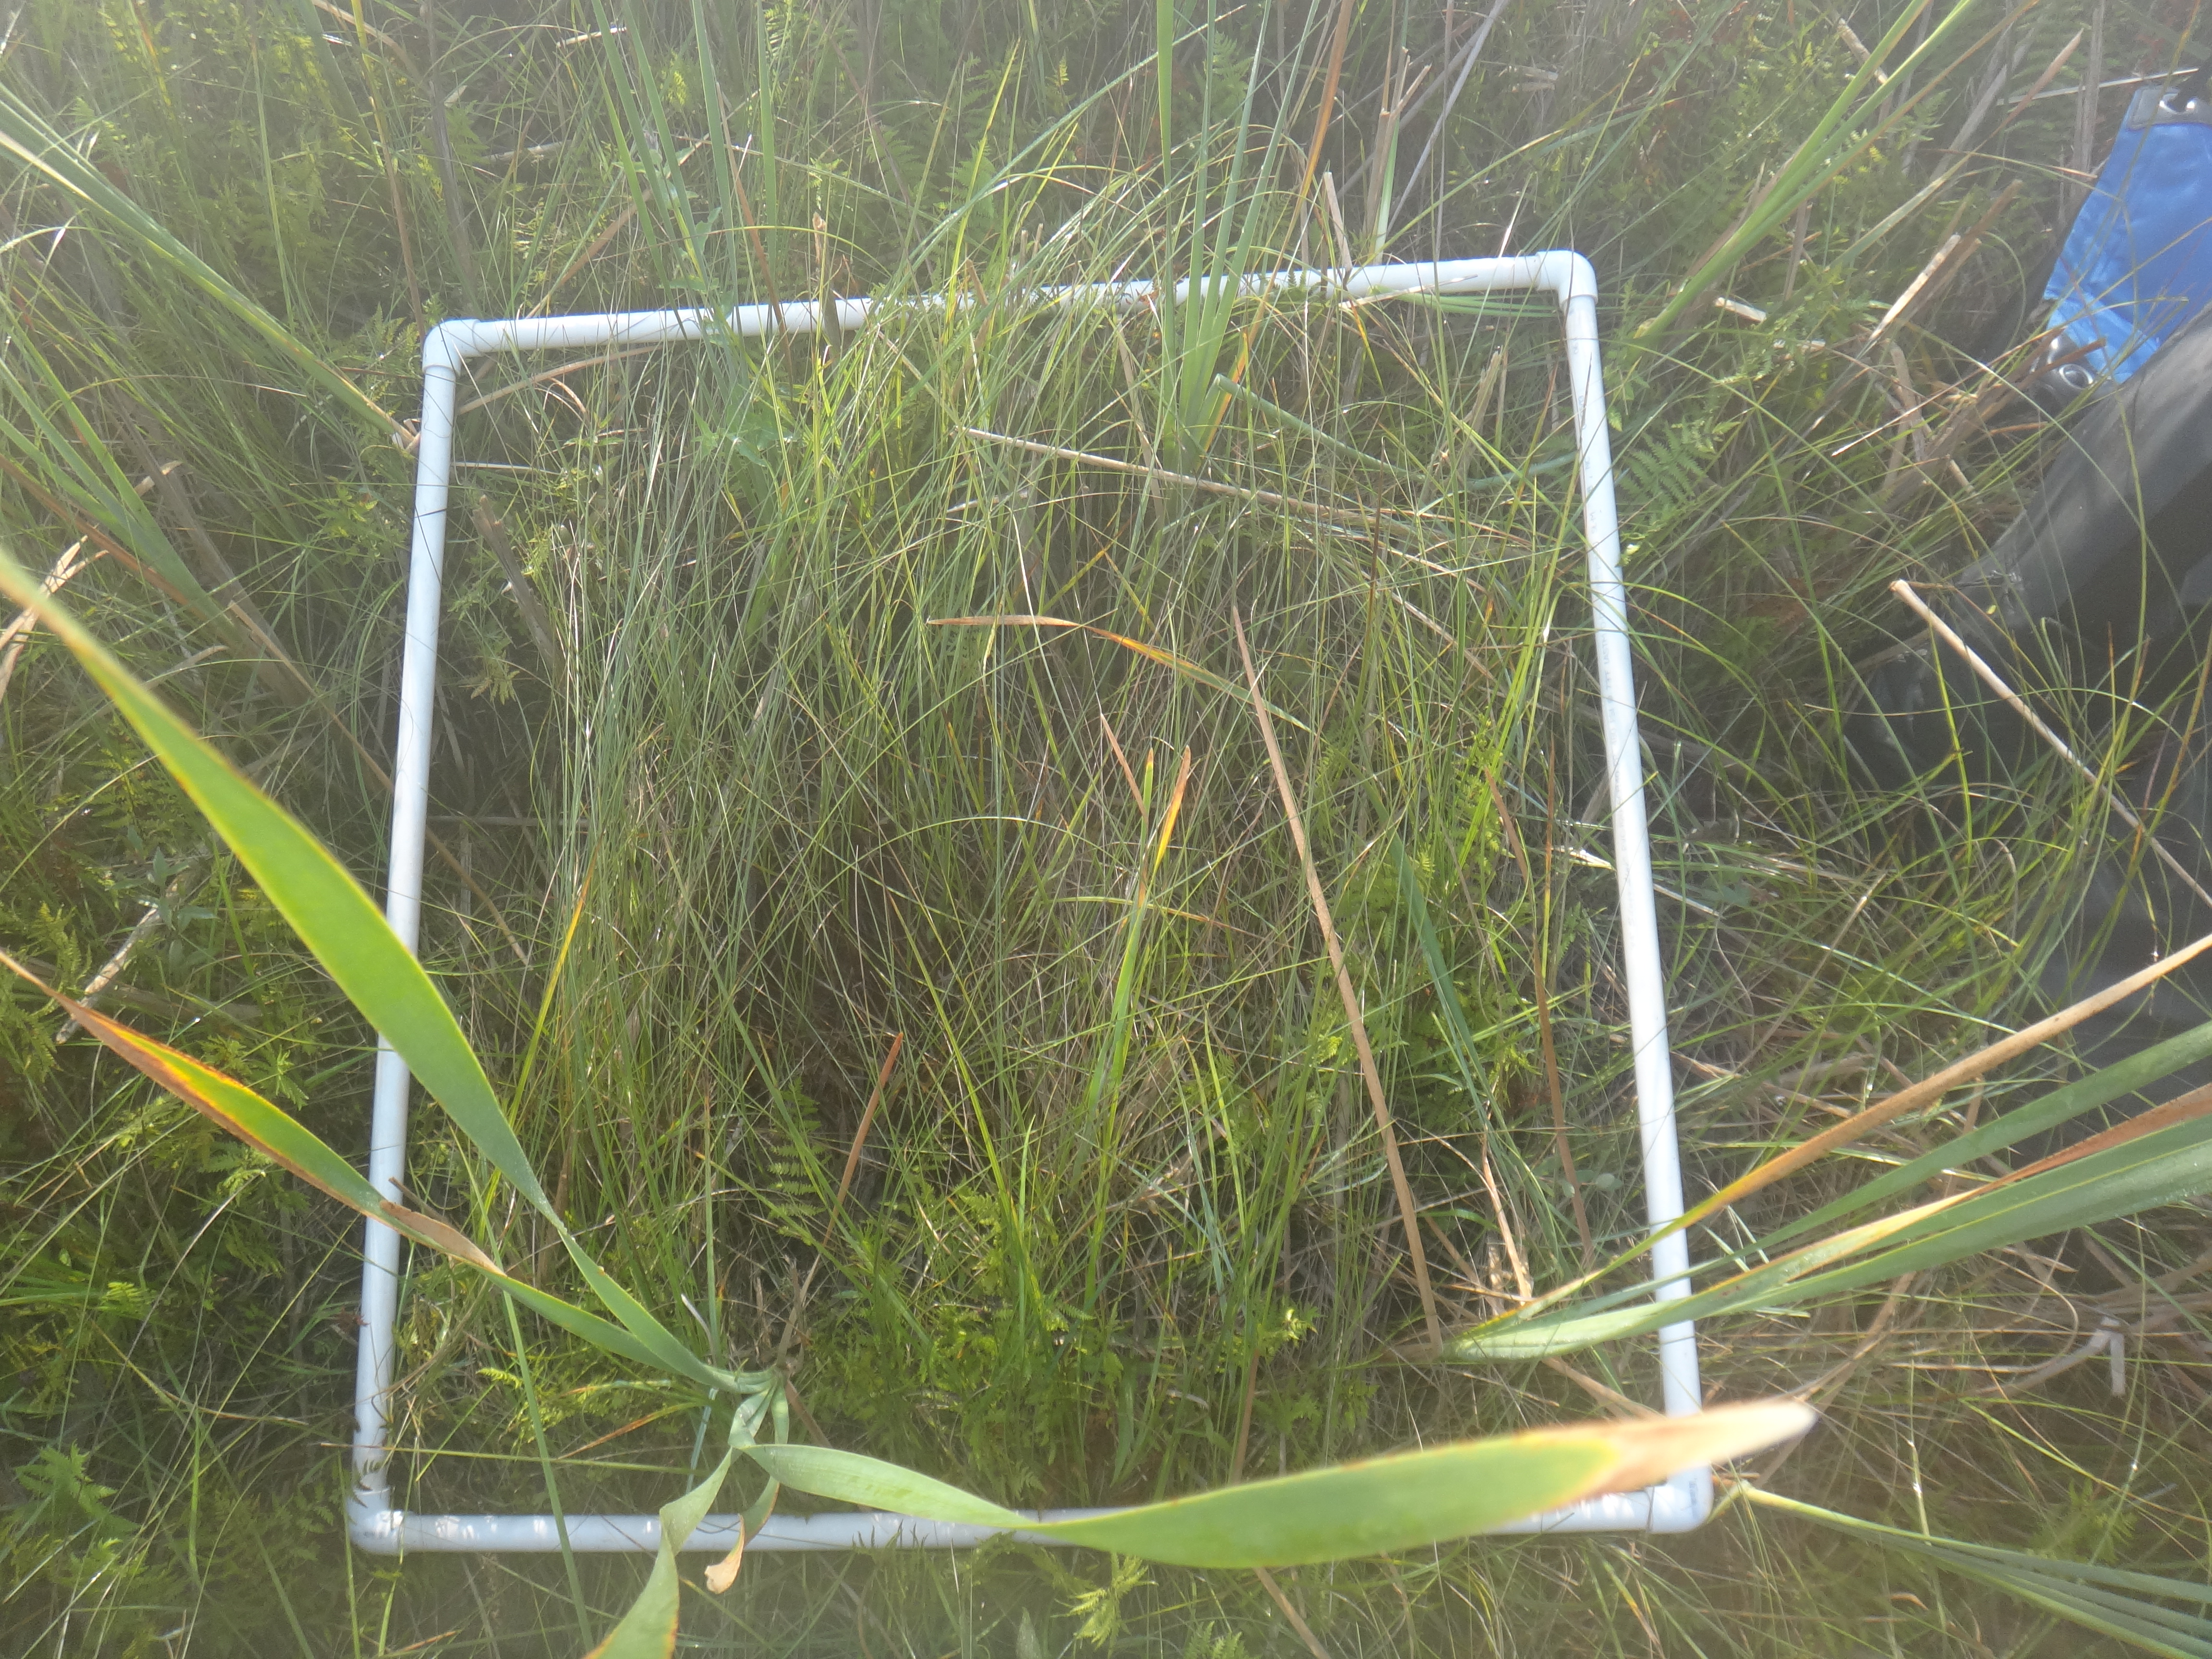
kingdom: Plantae
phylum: Tracheophyta
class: Magnoliopsida
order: Gentianales
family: Rubiaceae
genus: Galium
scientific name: Galium labradoricum
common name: Labrador bedstraw
